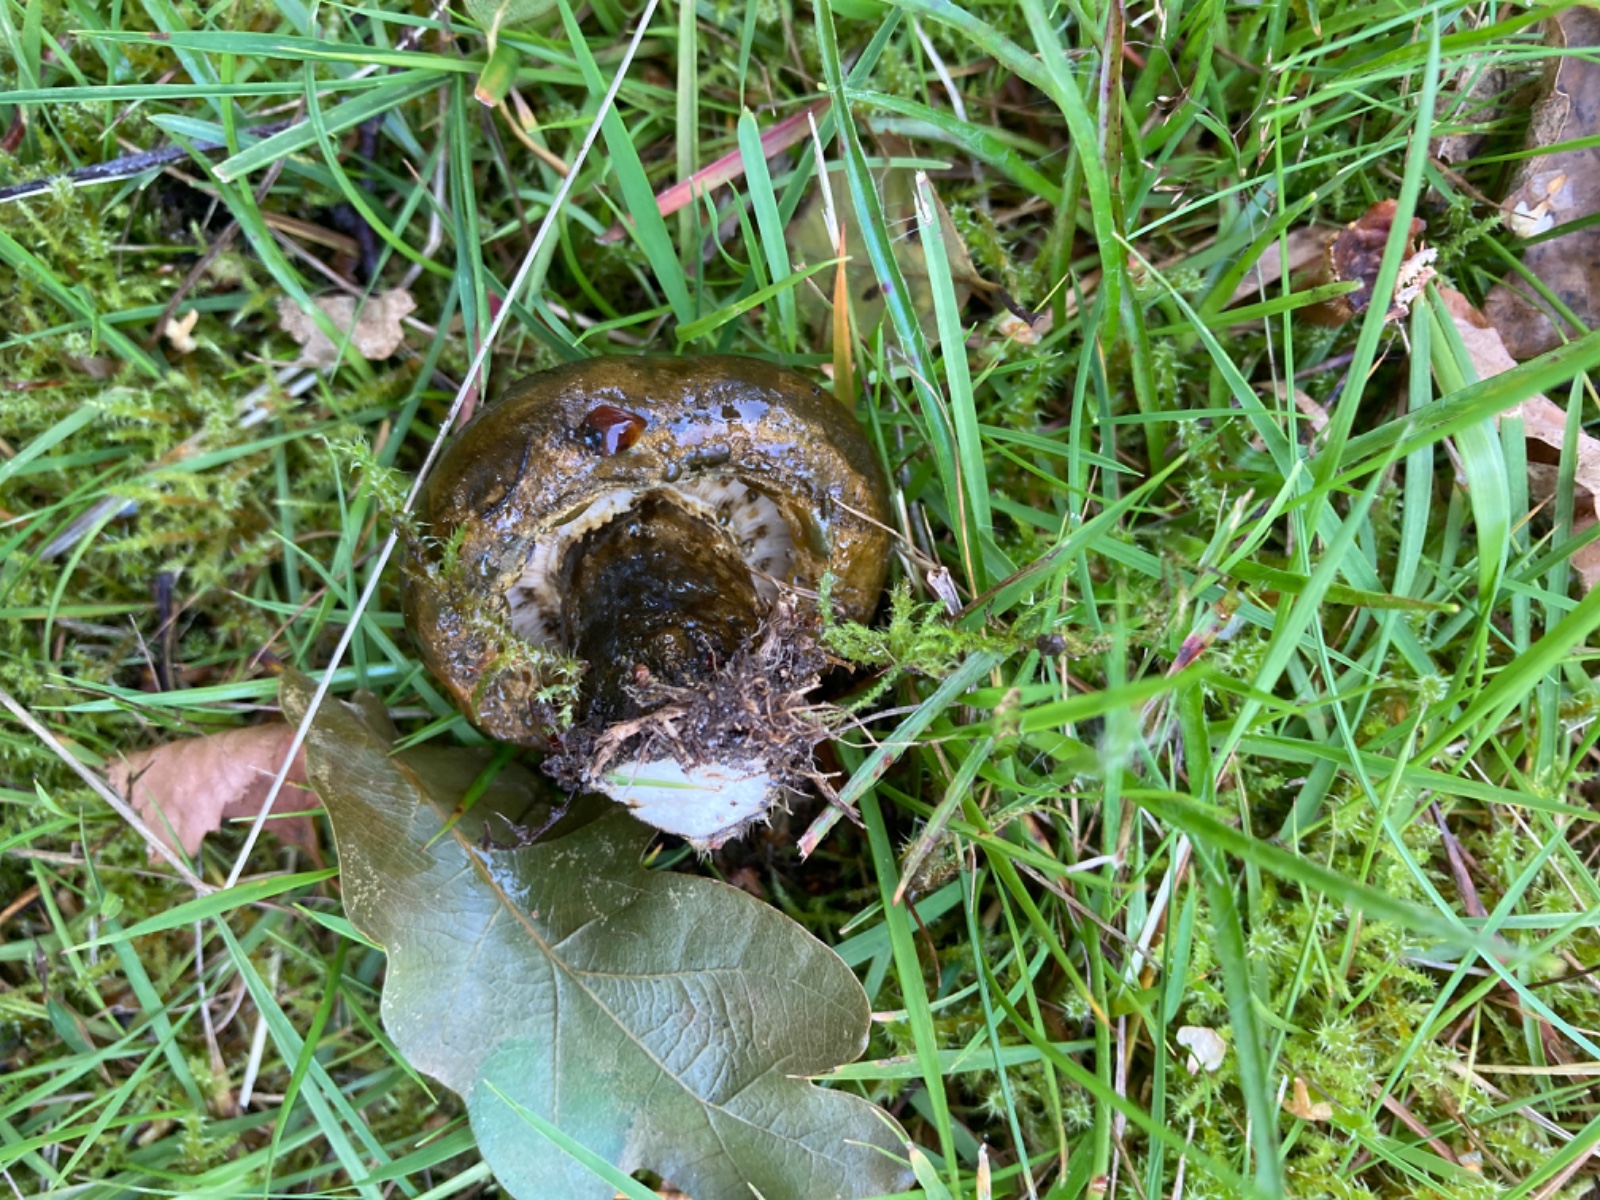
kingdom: Fungi
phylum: Basidiomycota
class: Agaricomycetes
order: Russulales
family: Russulaceae
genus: Lactarius
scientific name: Lactarius necator
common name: manddraber-mælkehat
